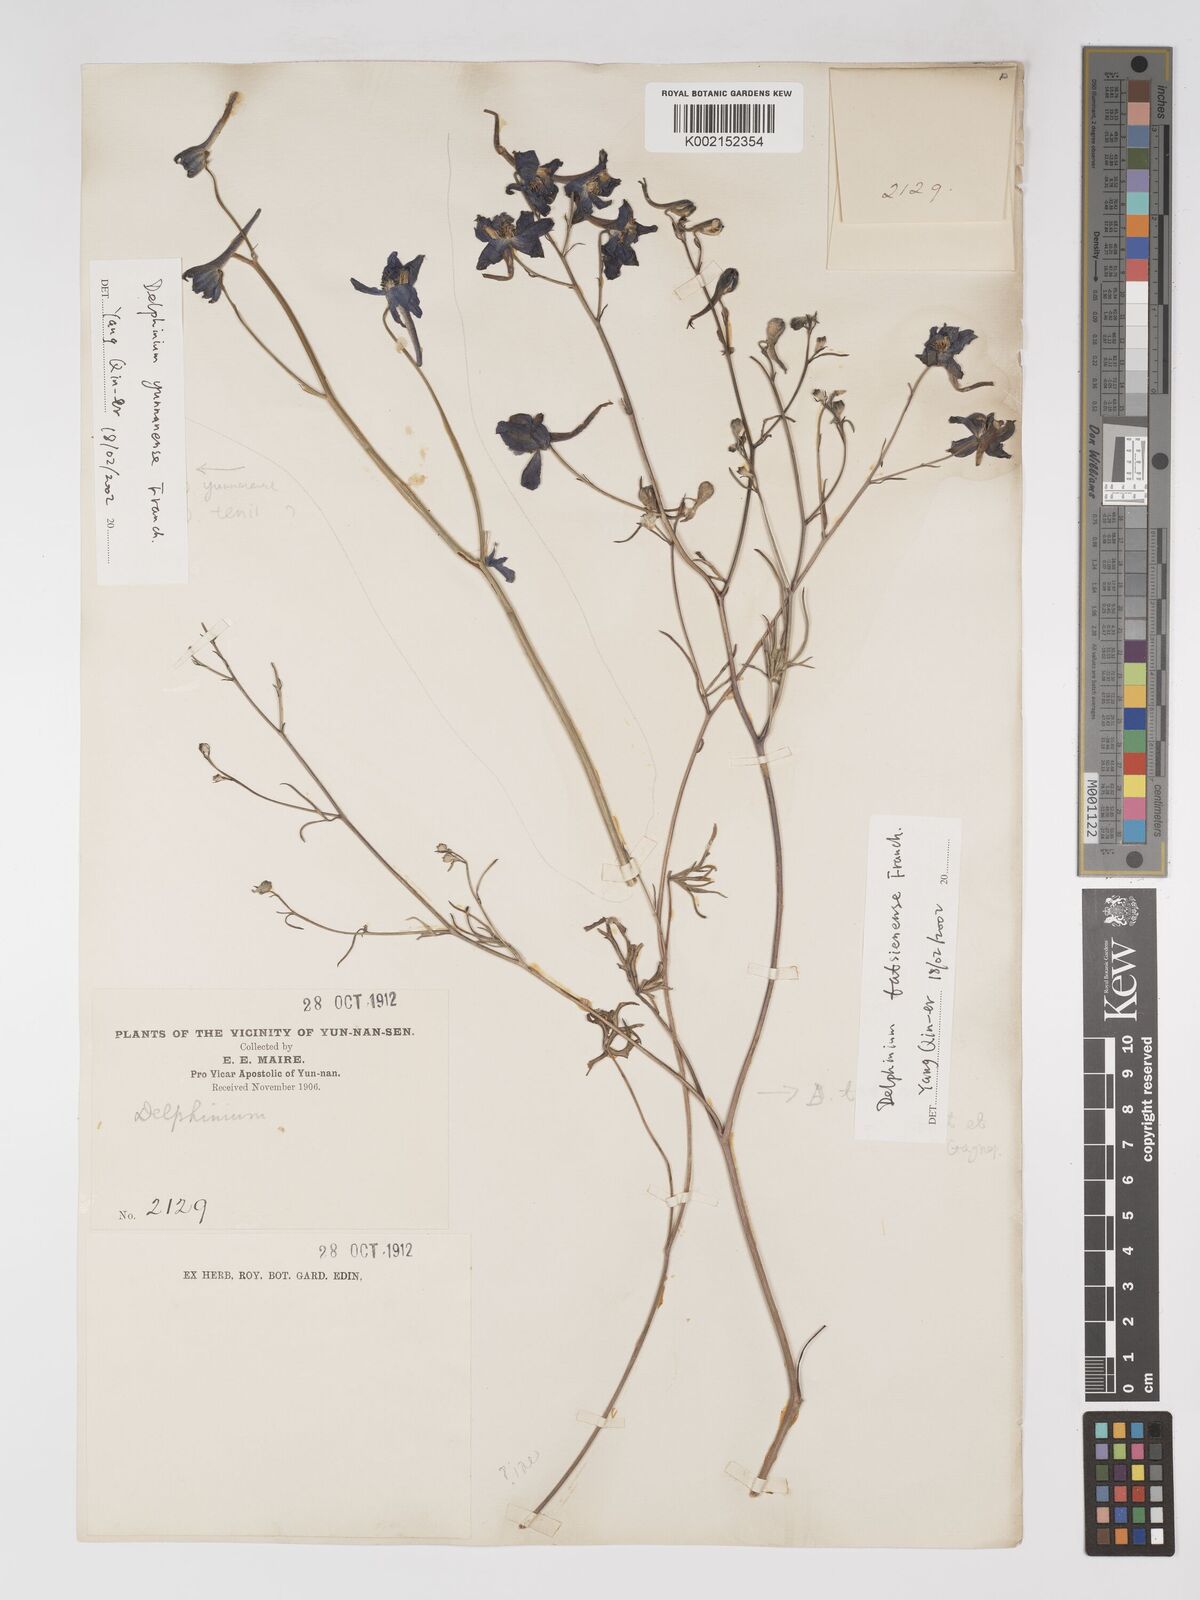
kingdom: Plantae
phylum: Tracheophyta
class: Magnoliopsida
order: Ranunculales
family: Ranunculaceae
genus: Delphinium
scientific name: Delphinium tatsienense
